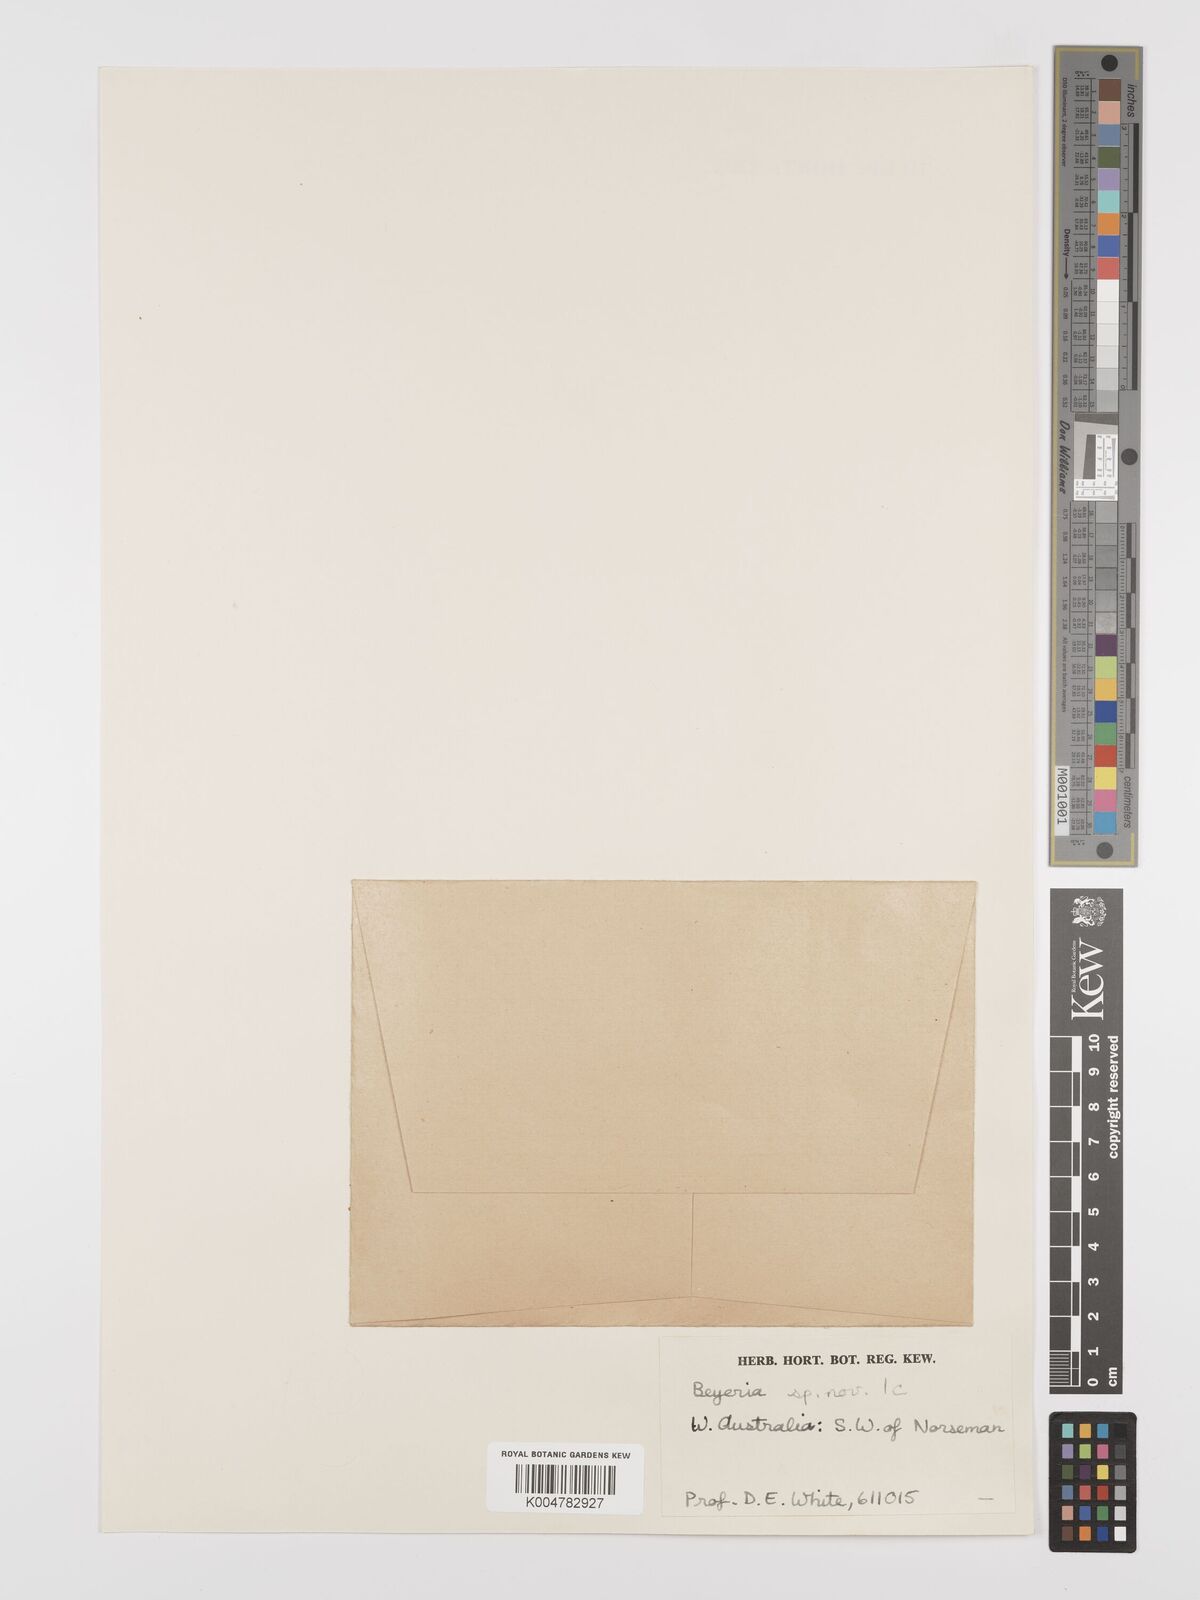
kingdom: Plantae
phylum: Tracheophyta
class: Magnoliopsida
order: Malpighiales
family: Euphorbiaceae
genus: Beyeria
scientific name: Beyeria sulcata
